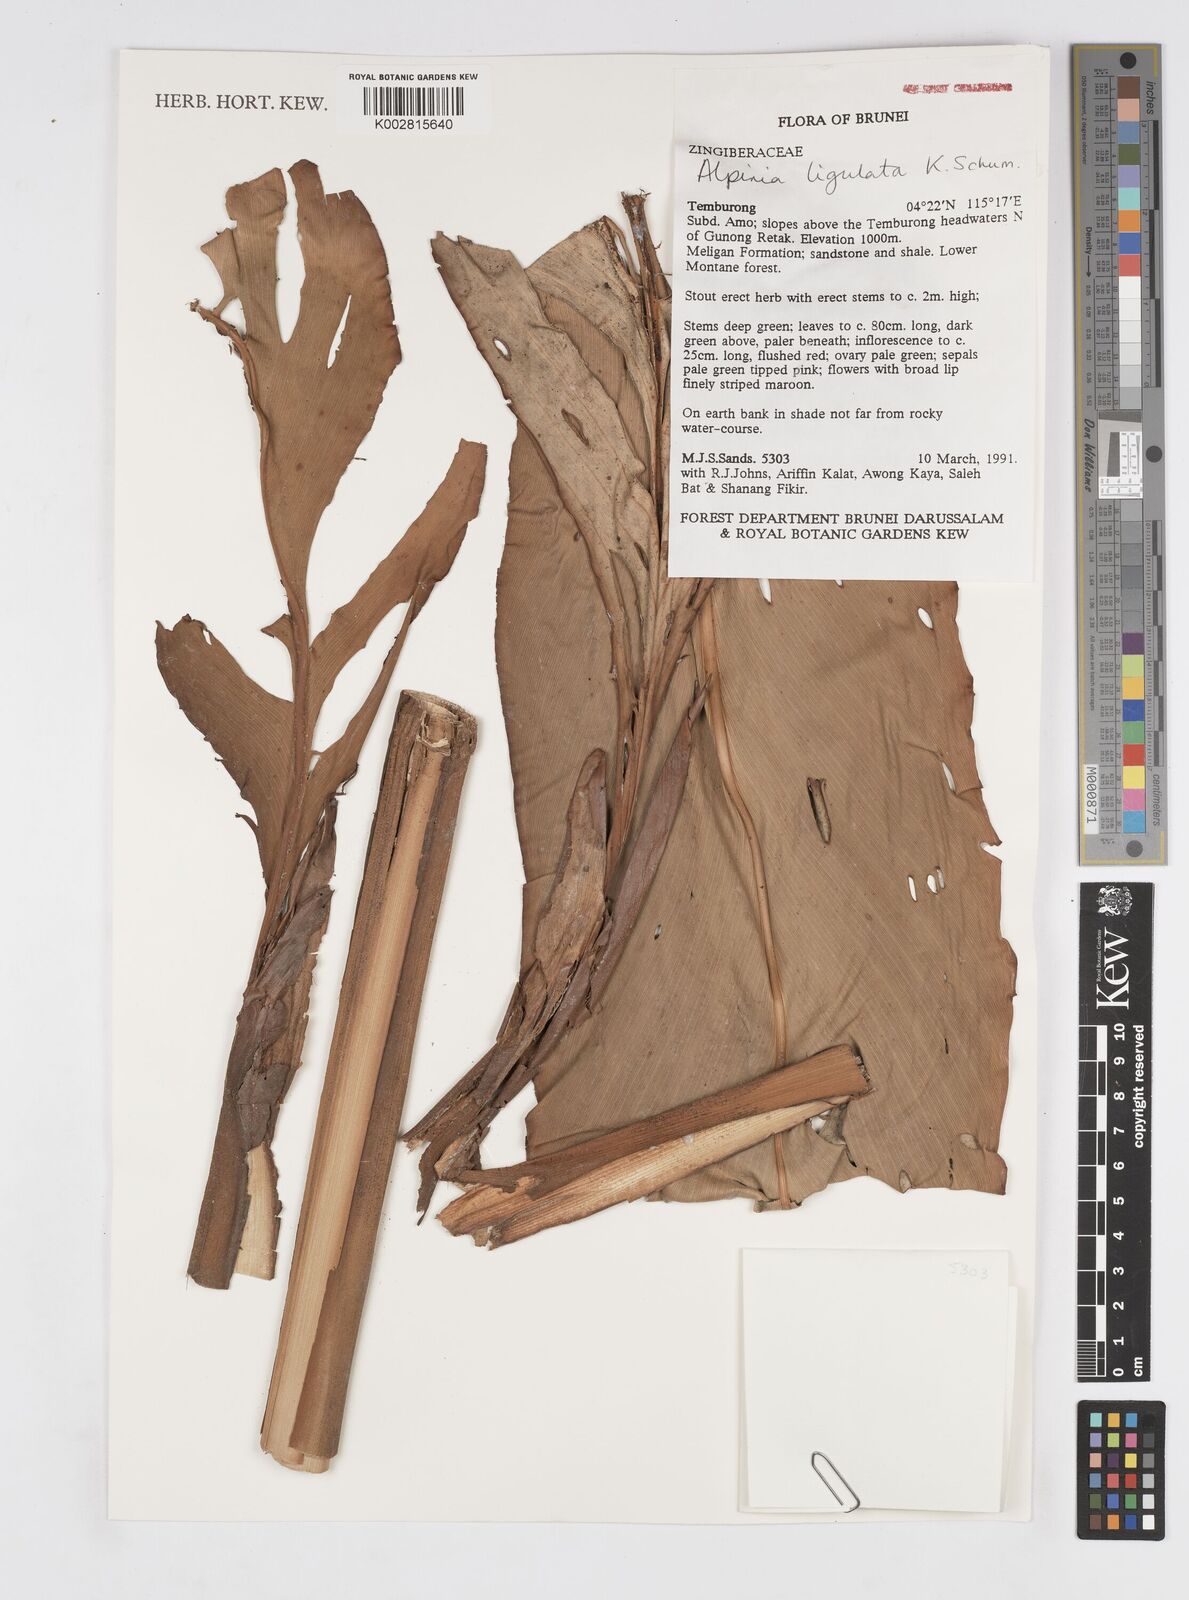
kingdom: Plantae
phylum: Tracheophyta
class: Liliopsida
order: Zingiberales
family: Zingiberaceae
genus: Alpinia
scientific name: Alpinia ligulata
